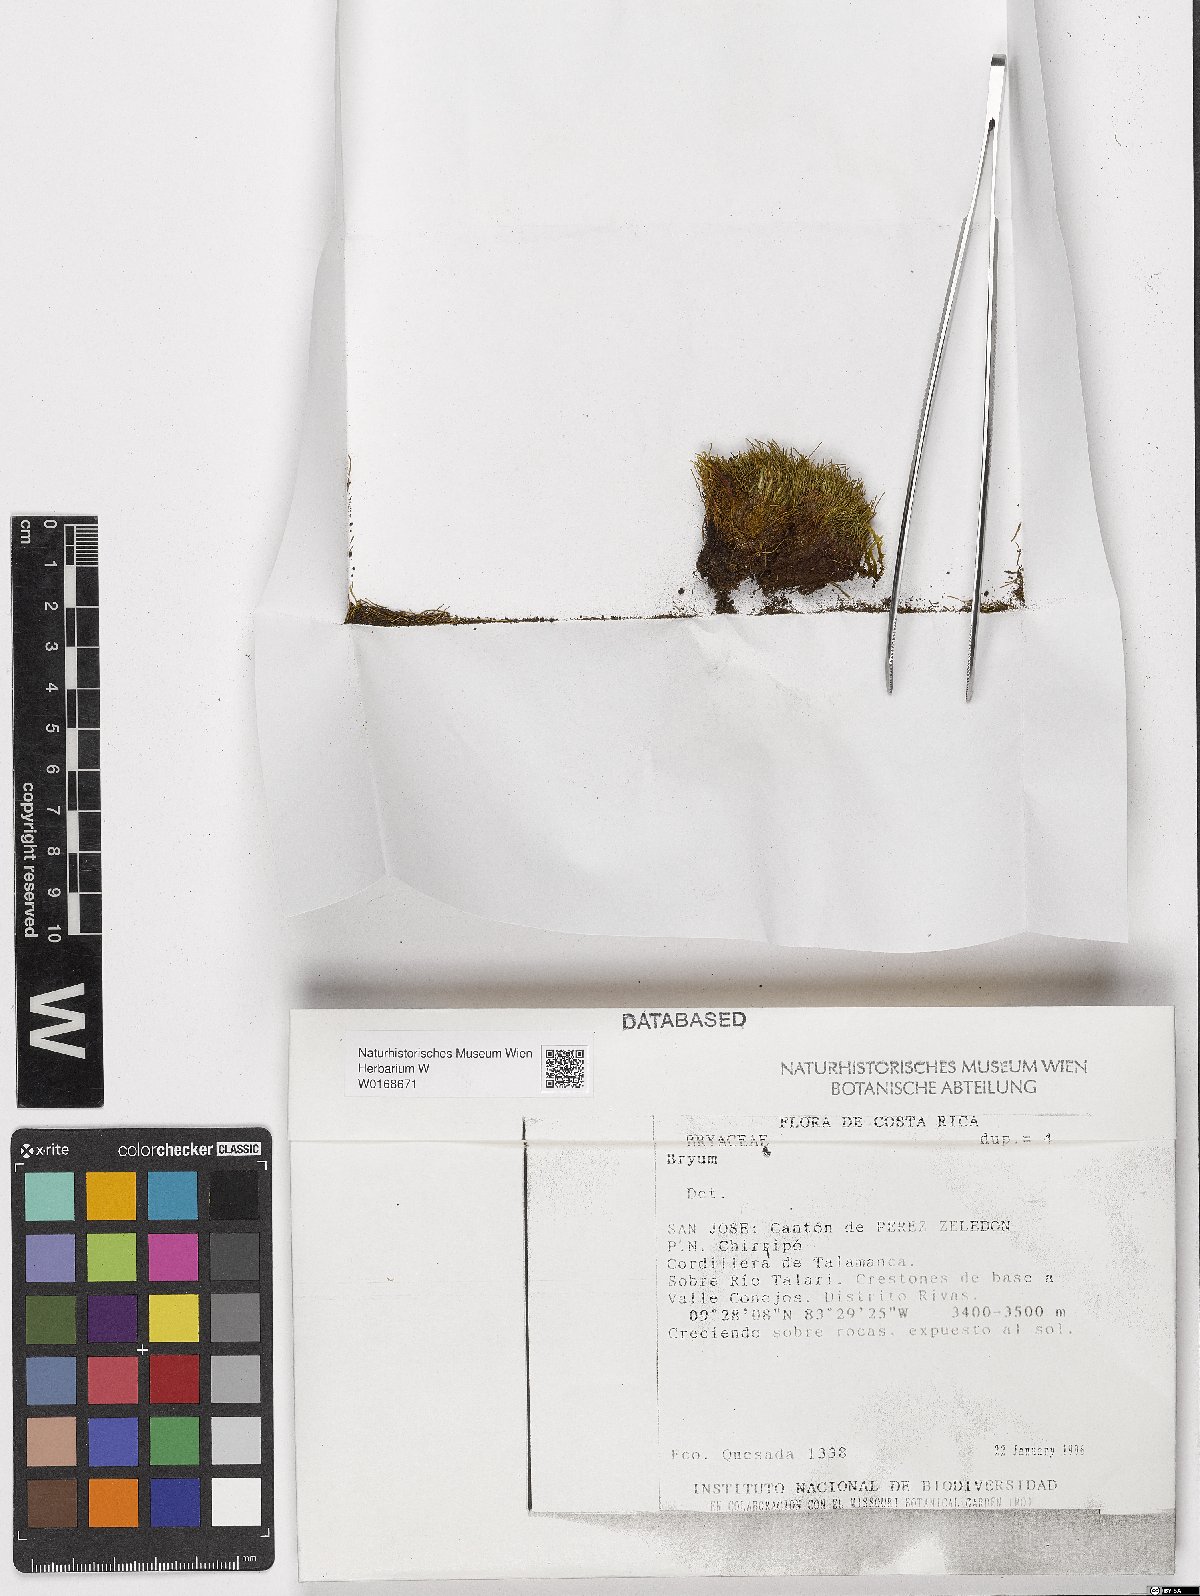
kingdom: Plantae
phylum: Bryophyta
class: Bryopsida
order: Bryales
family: Bryaceae
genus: Bryum
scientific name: Bryum
